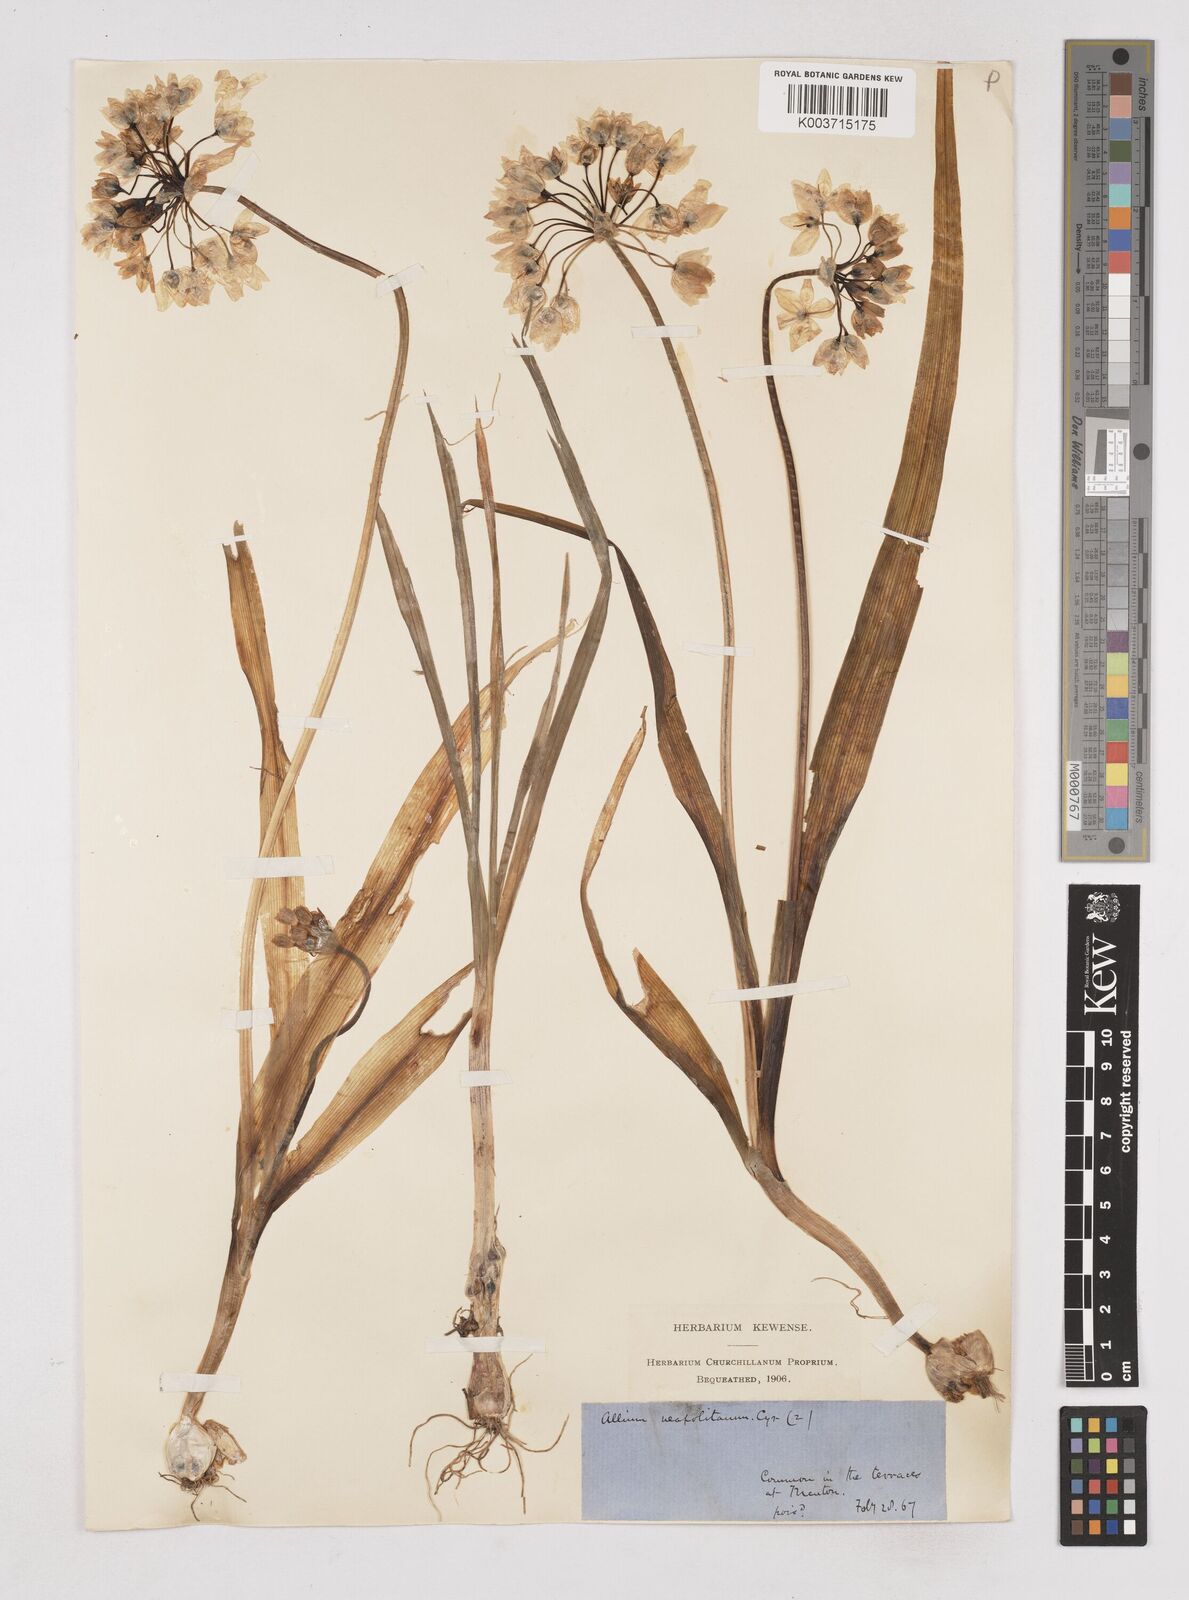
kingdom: Plantae
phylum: Tracheophyta
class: Liliopsida
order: Asparagales
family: Amaryllidaceae
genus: Allium
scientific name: Allium neapolitanum
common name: Neapolitan garlic
